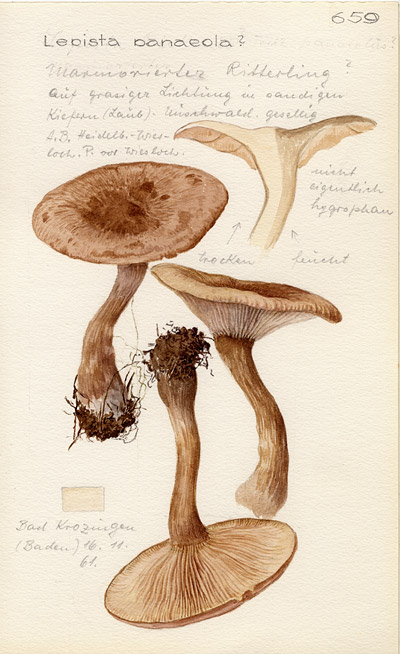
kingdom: Fungi
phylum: Basidiomycota
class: Agaricomycetes
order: Agaricales
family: Tricholomataceae
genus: Lepista
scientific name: Lepista luscina
